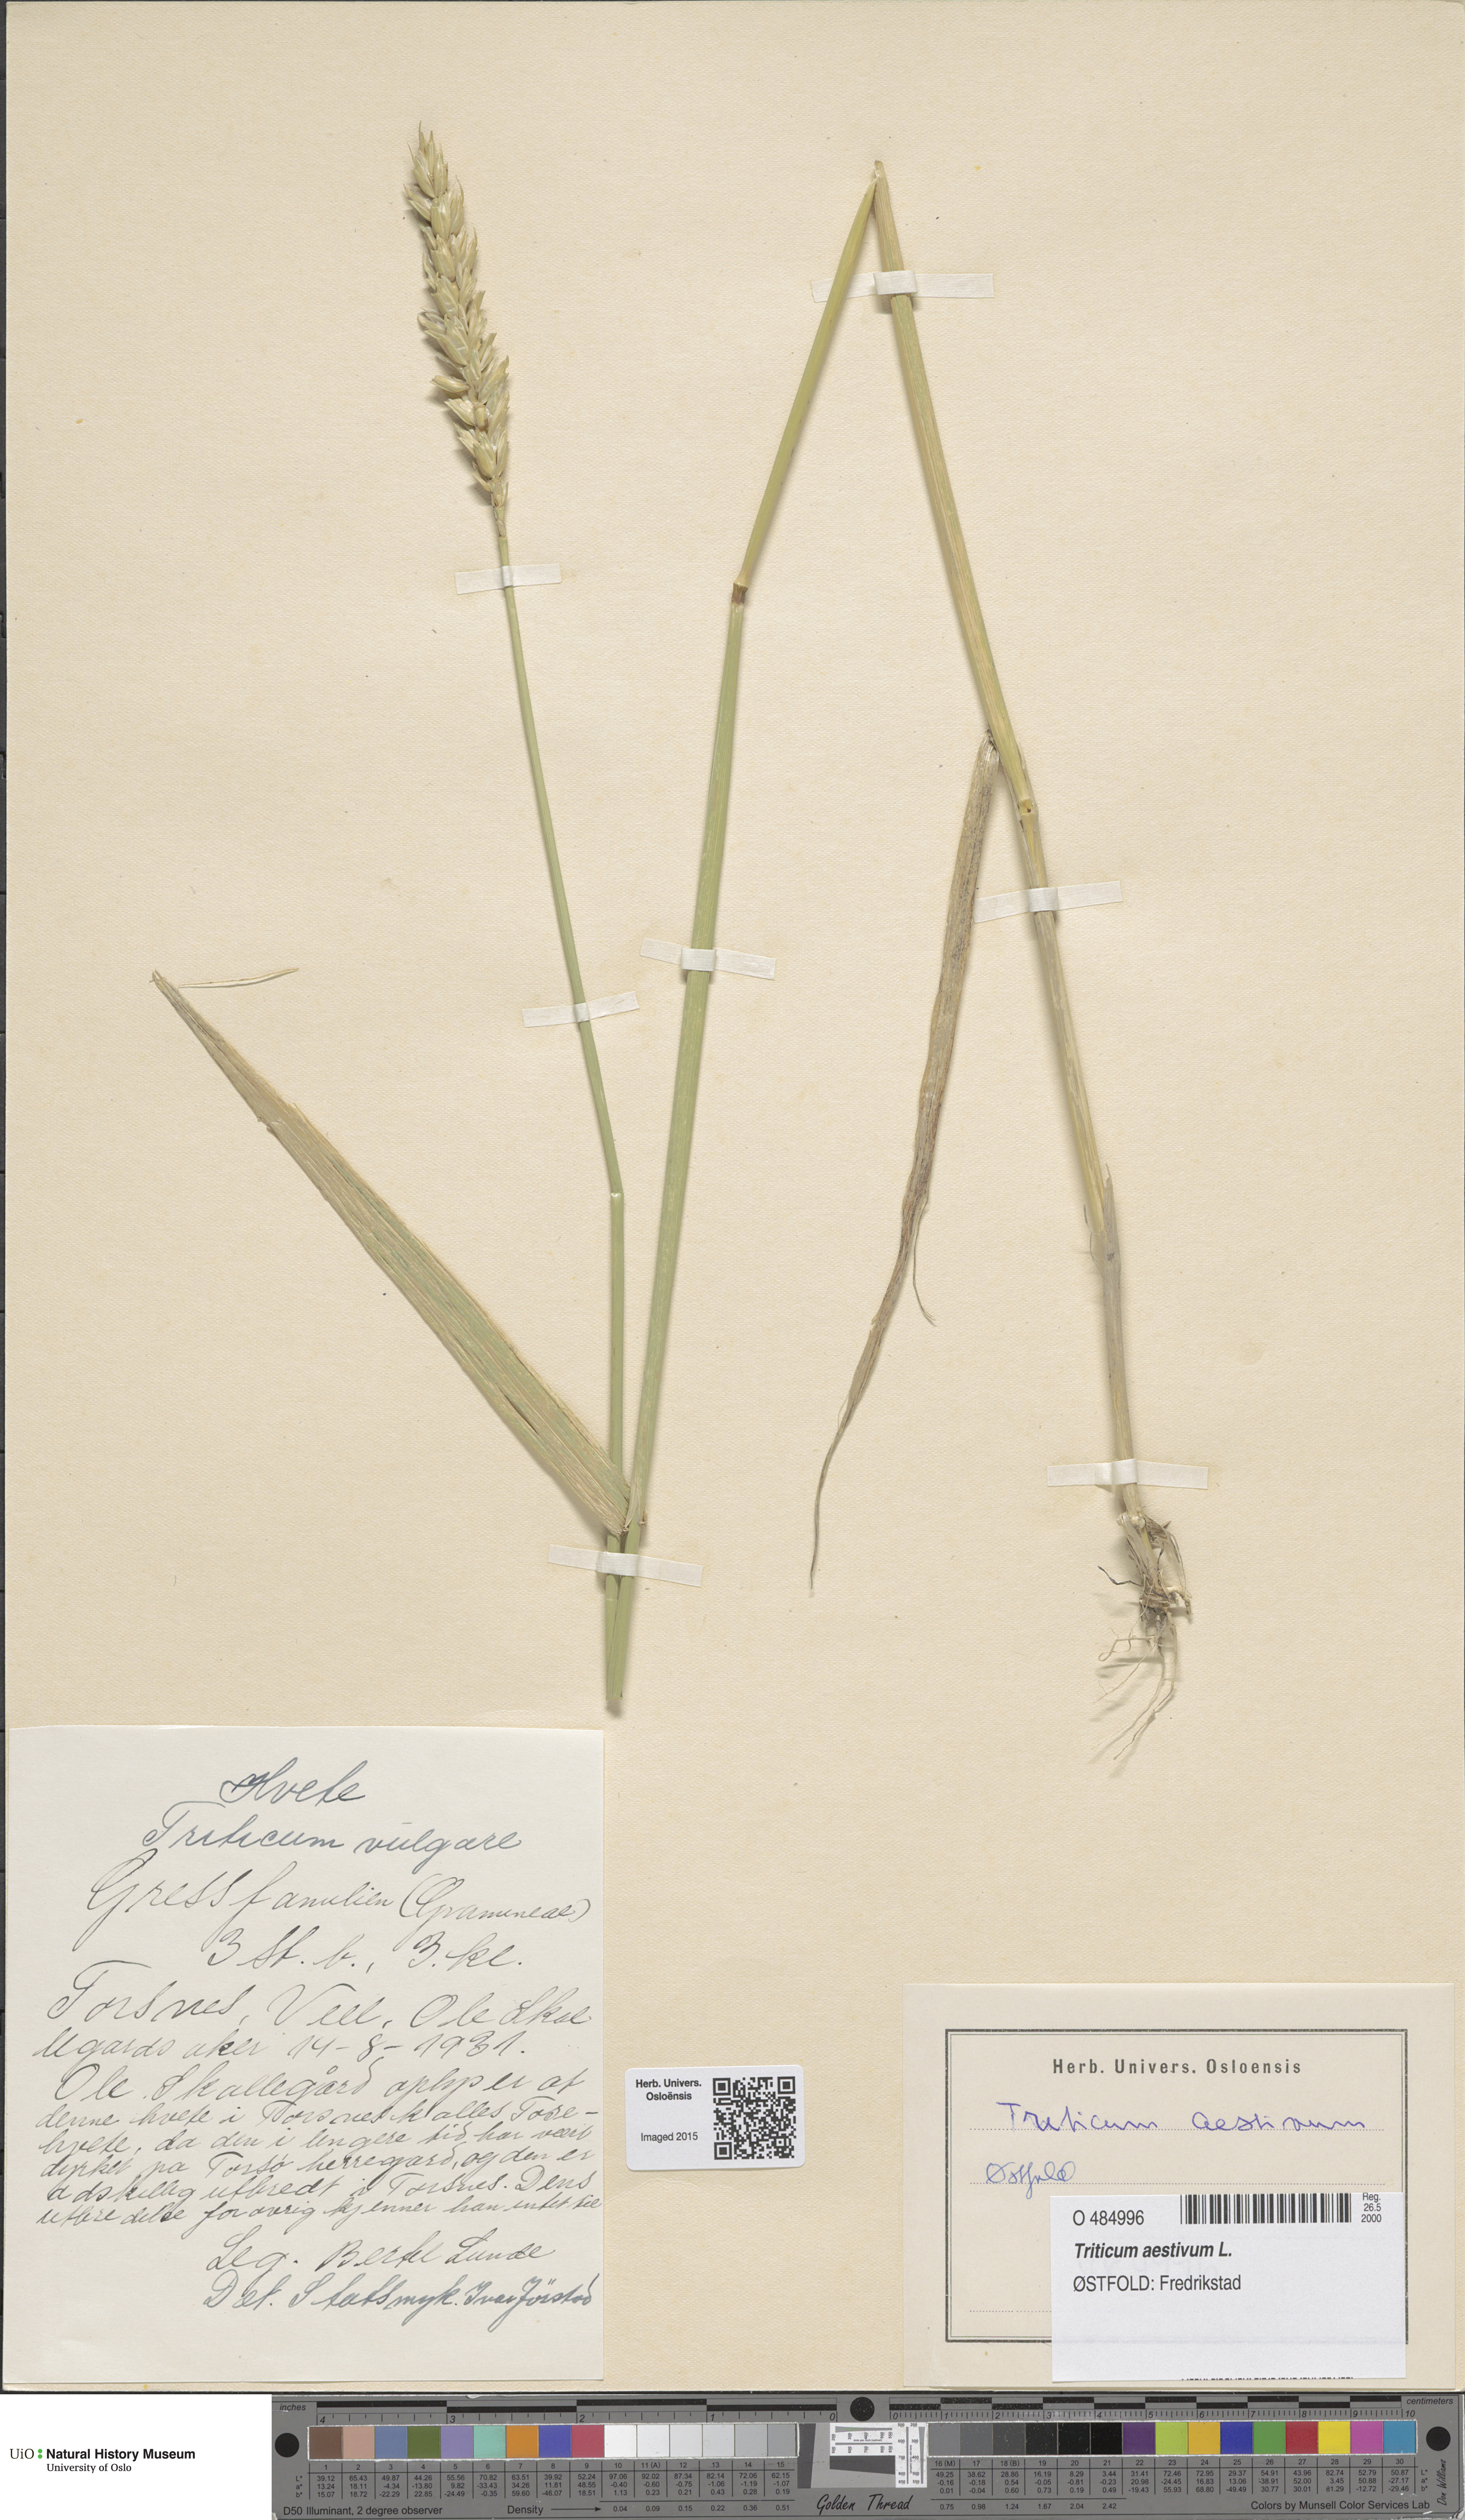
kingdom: Plantae
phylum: Tracheophyta
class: Liliopsida
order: Poales
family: Poaceae
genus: Triticum
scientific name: Triticum aestivum
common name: Common wheat
